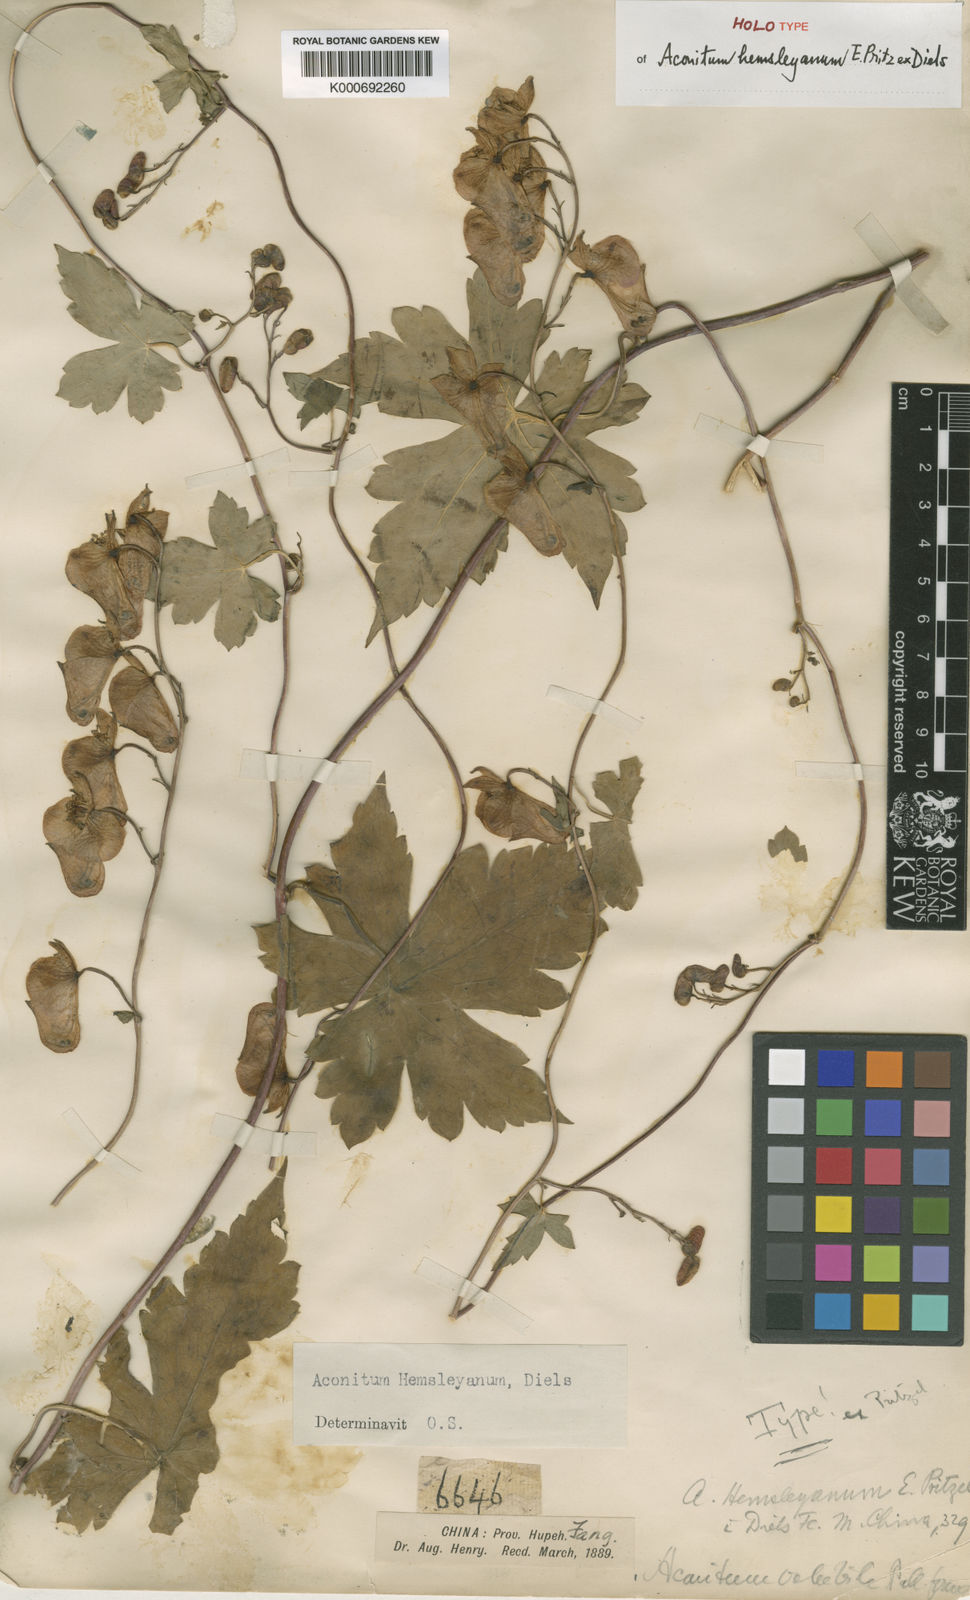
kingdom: Plantae
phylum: Tracheophyta
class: Magnoliopsida
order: Ranunculales
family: Ranunculaceae
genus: Aconitum
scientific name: Aconitum
